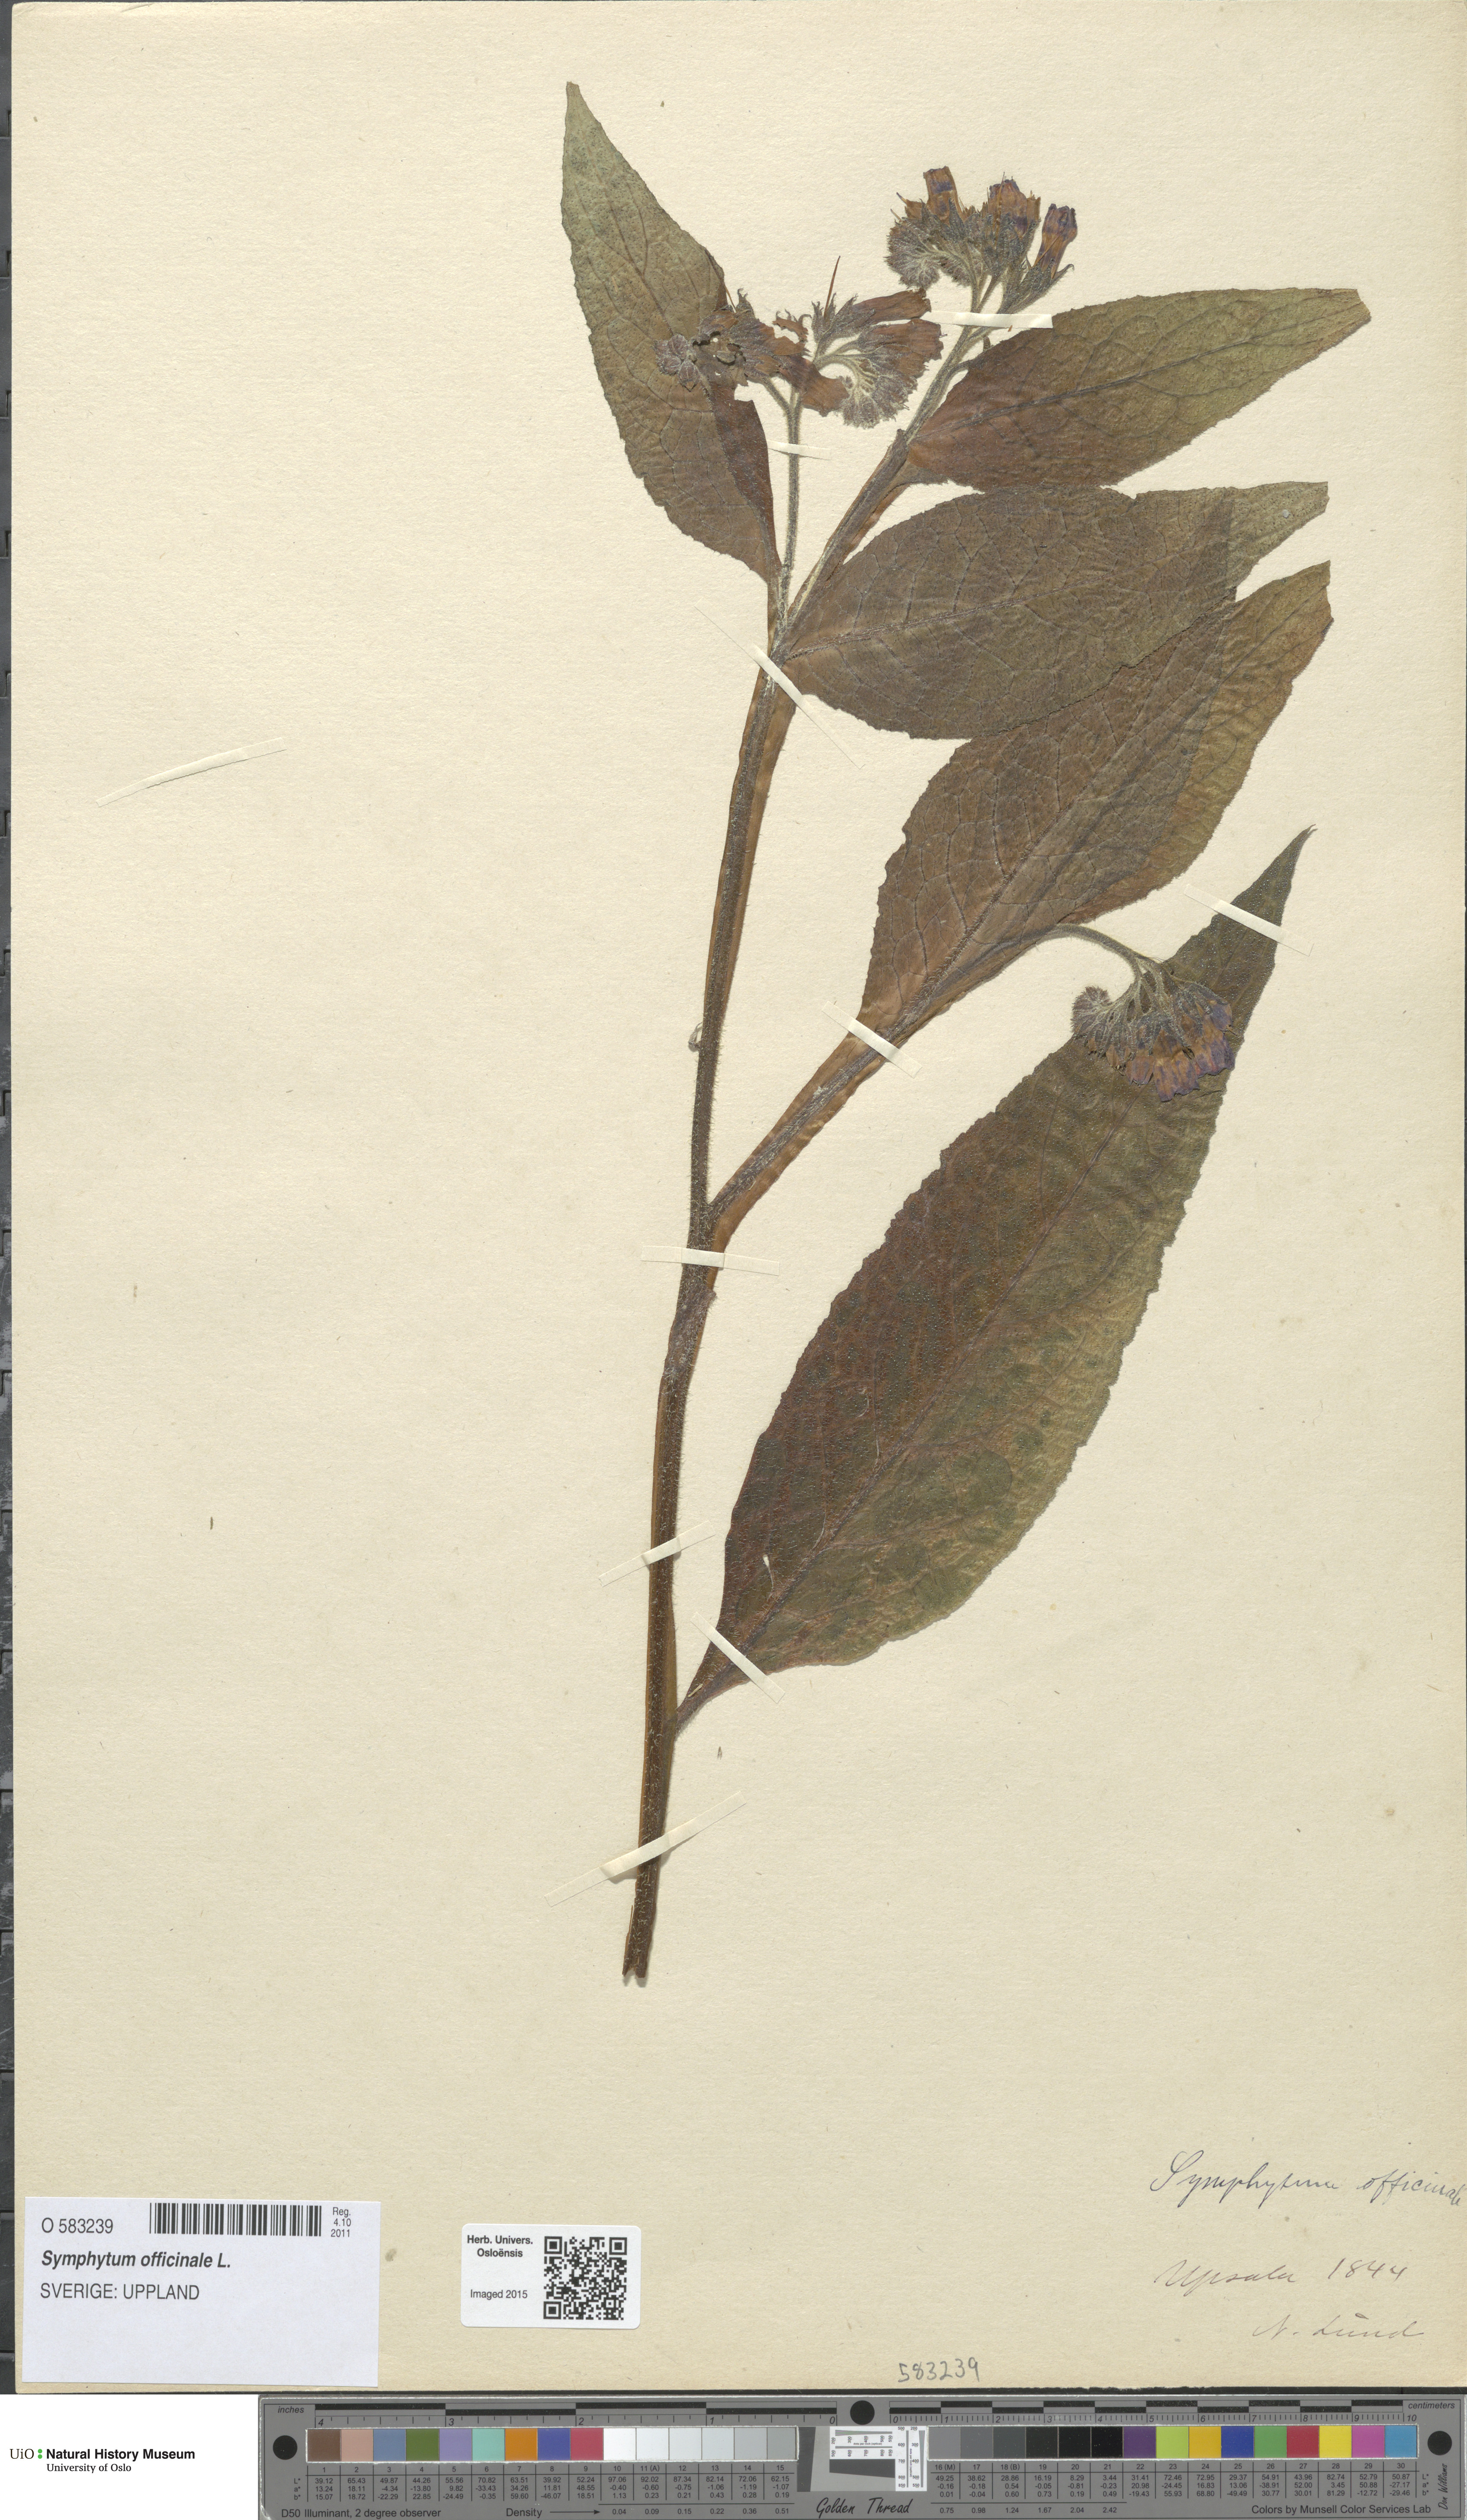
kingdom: Plantae
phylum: Tracheophyta
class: Magnoliopsida
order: Boraginales
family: Boraginaceae
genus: Symphytum
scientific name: Symphytum officinale
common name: Common comfrey
